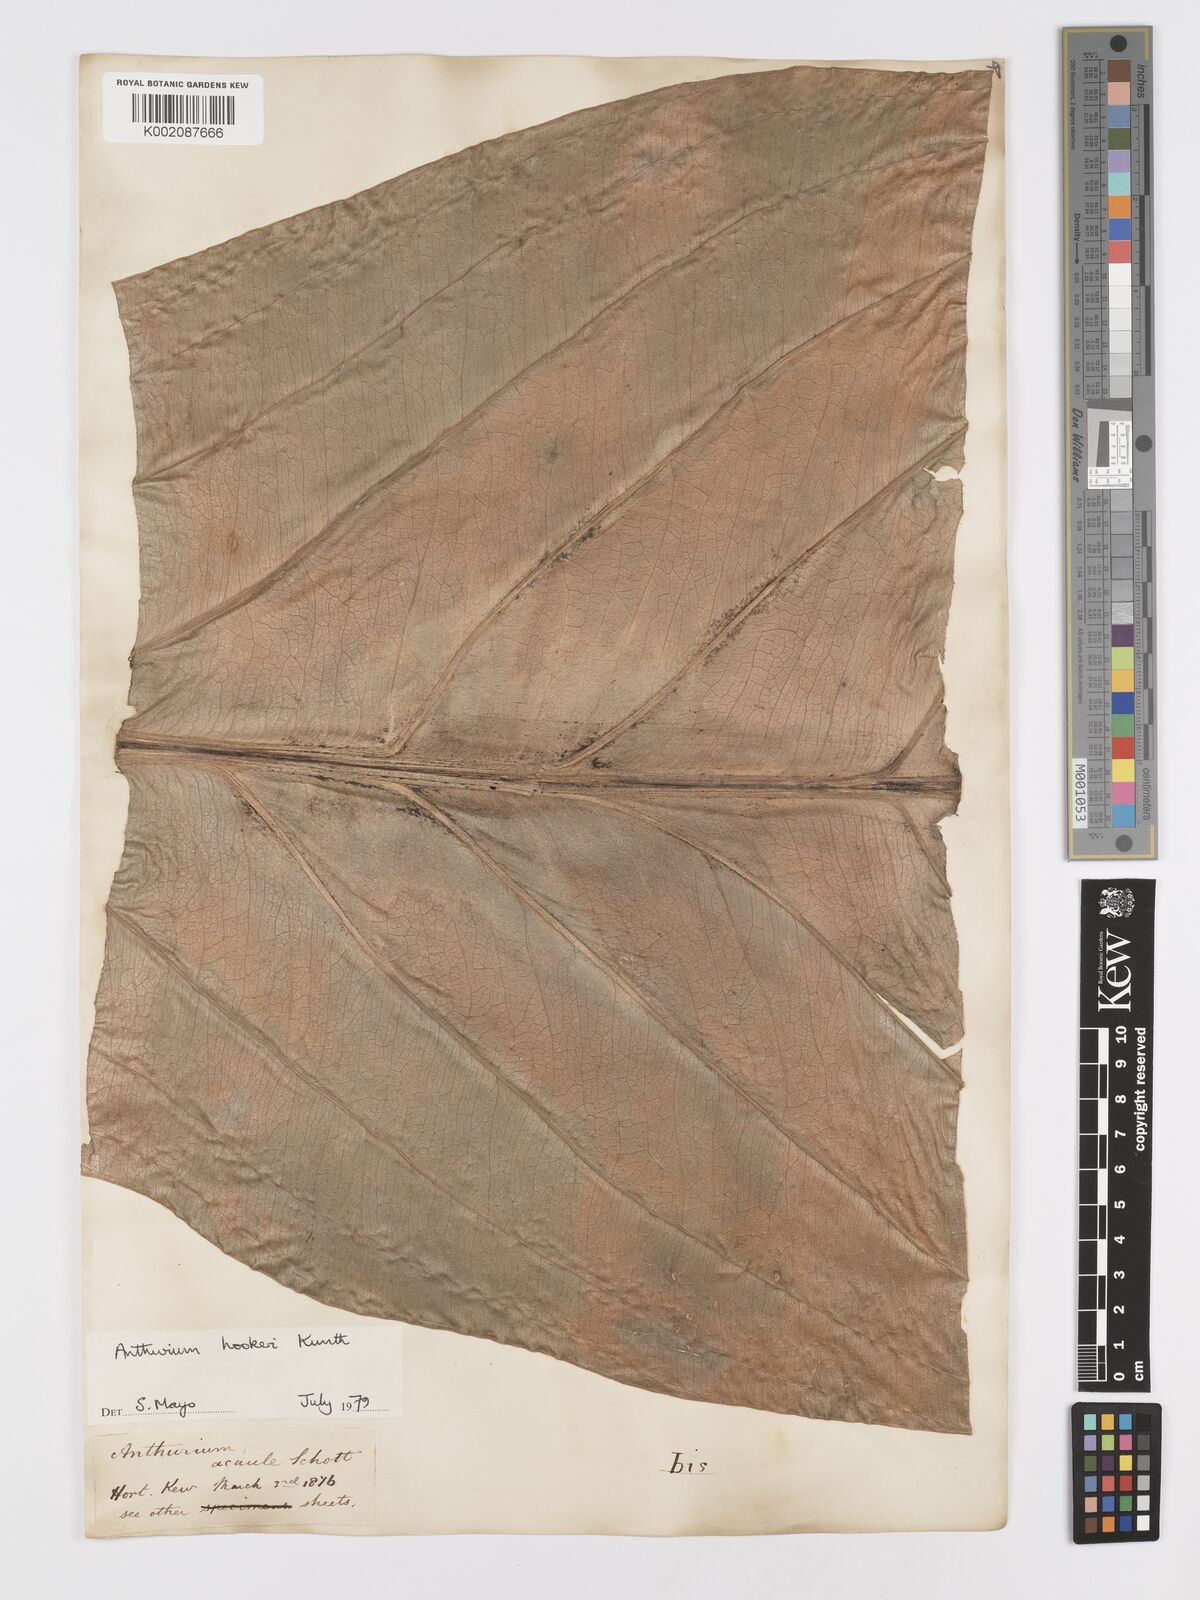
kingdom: Plantae
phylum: Tracheophyta
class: Liliopsida
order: Alismatales
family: Araceae
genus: Anthurium
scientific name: Anthurium hookeri
